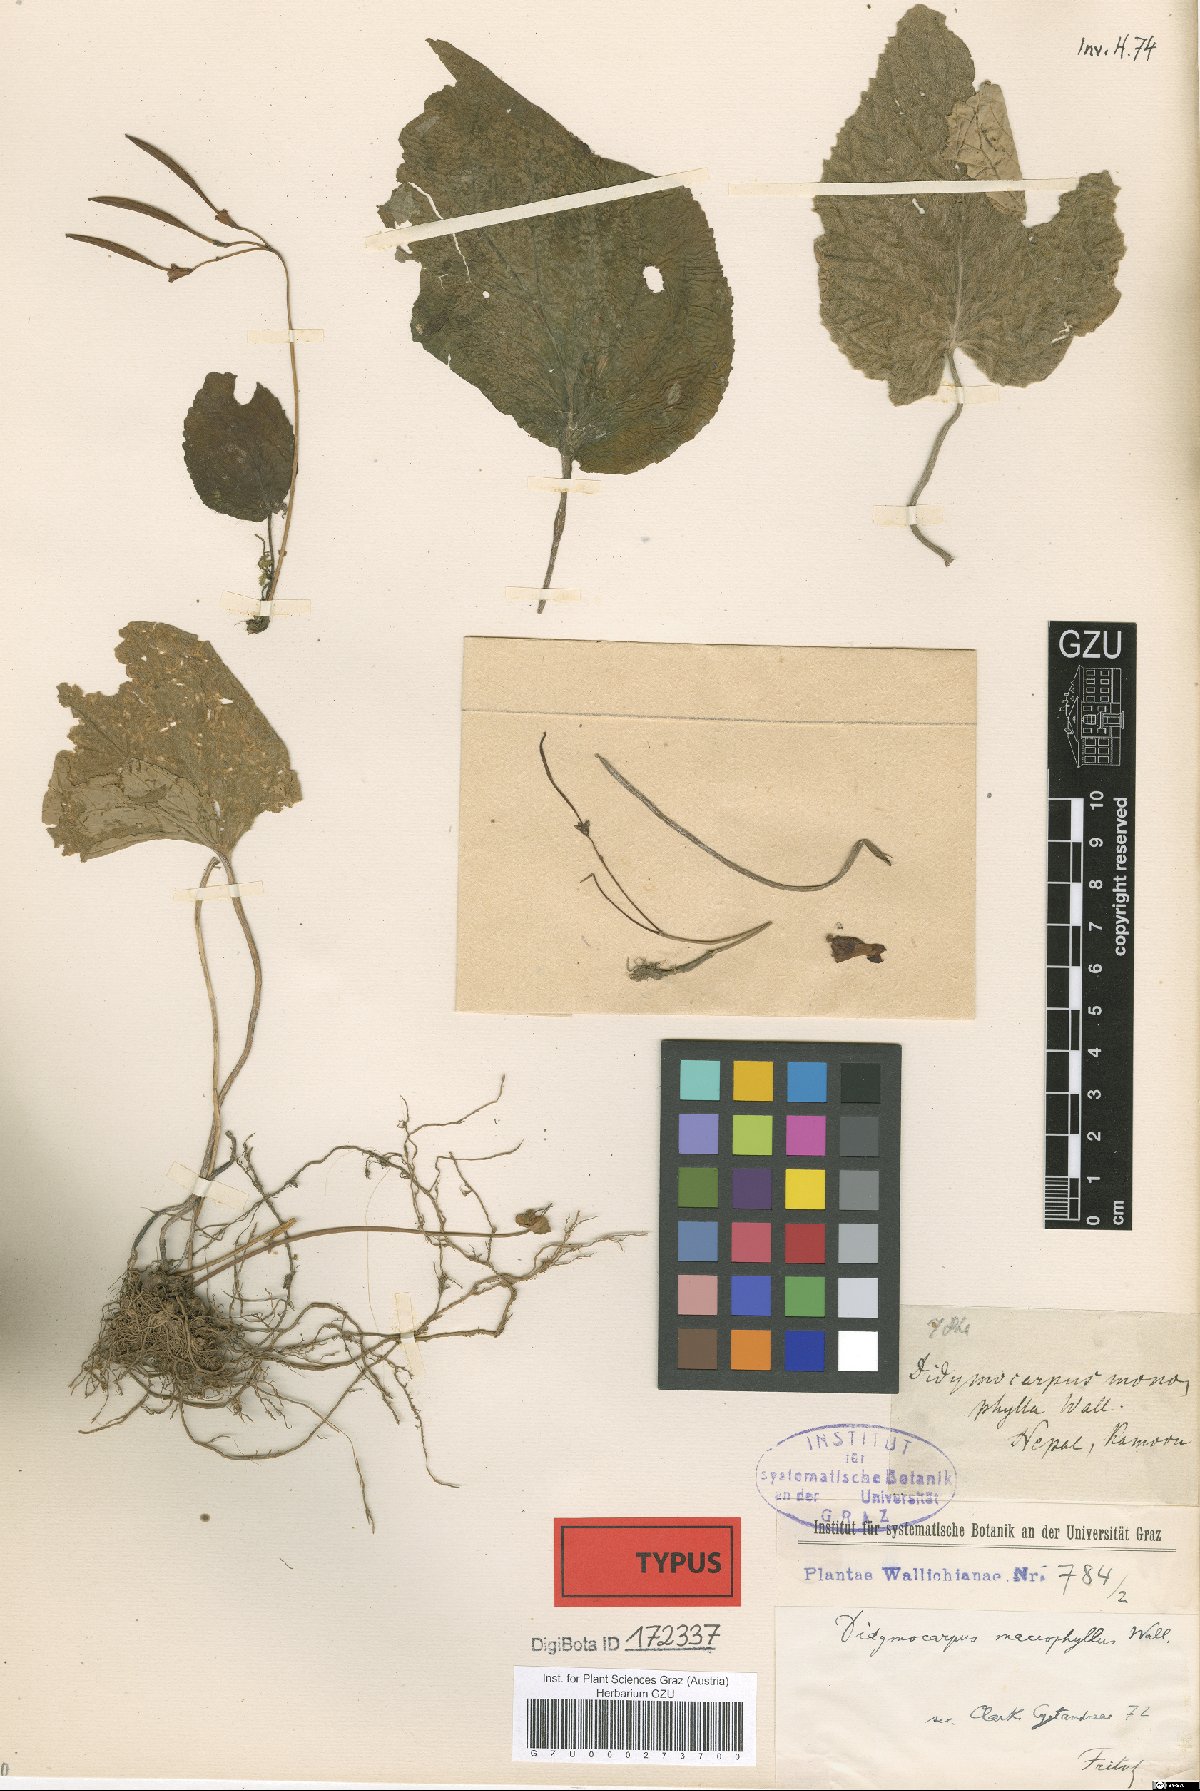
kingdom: Plantae
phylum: Tracheophyta
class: Magnoliopsida
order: Lamiales
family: Gesneriaceae
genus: Didymocarpus
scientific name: Didymocarpus macrophyllus
